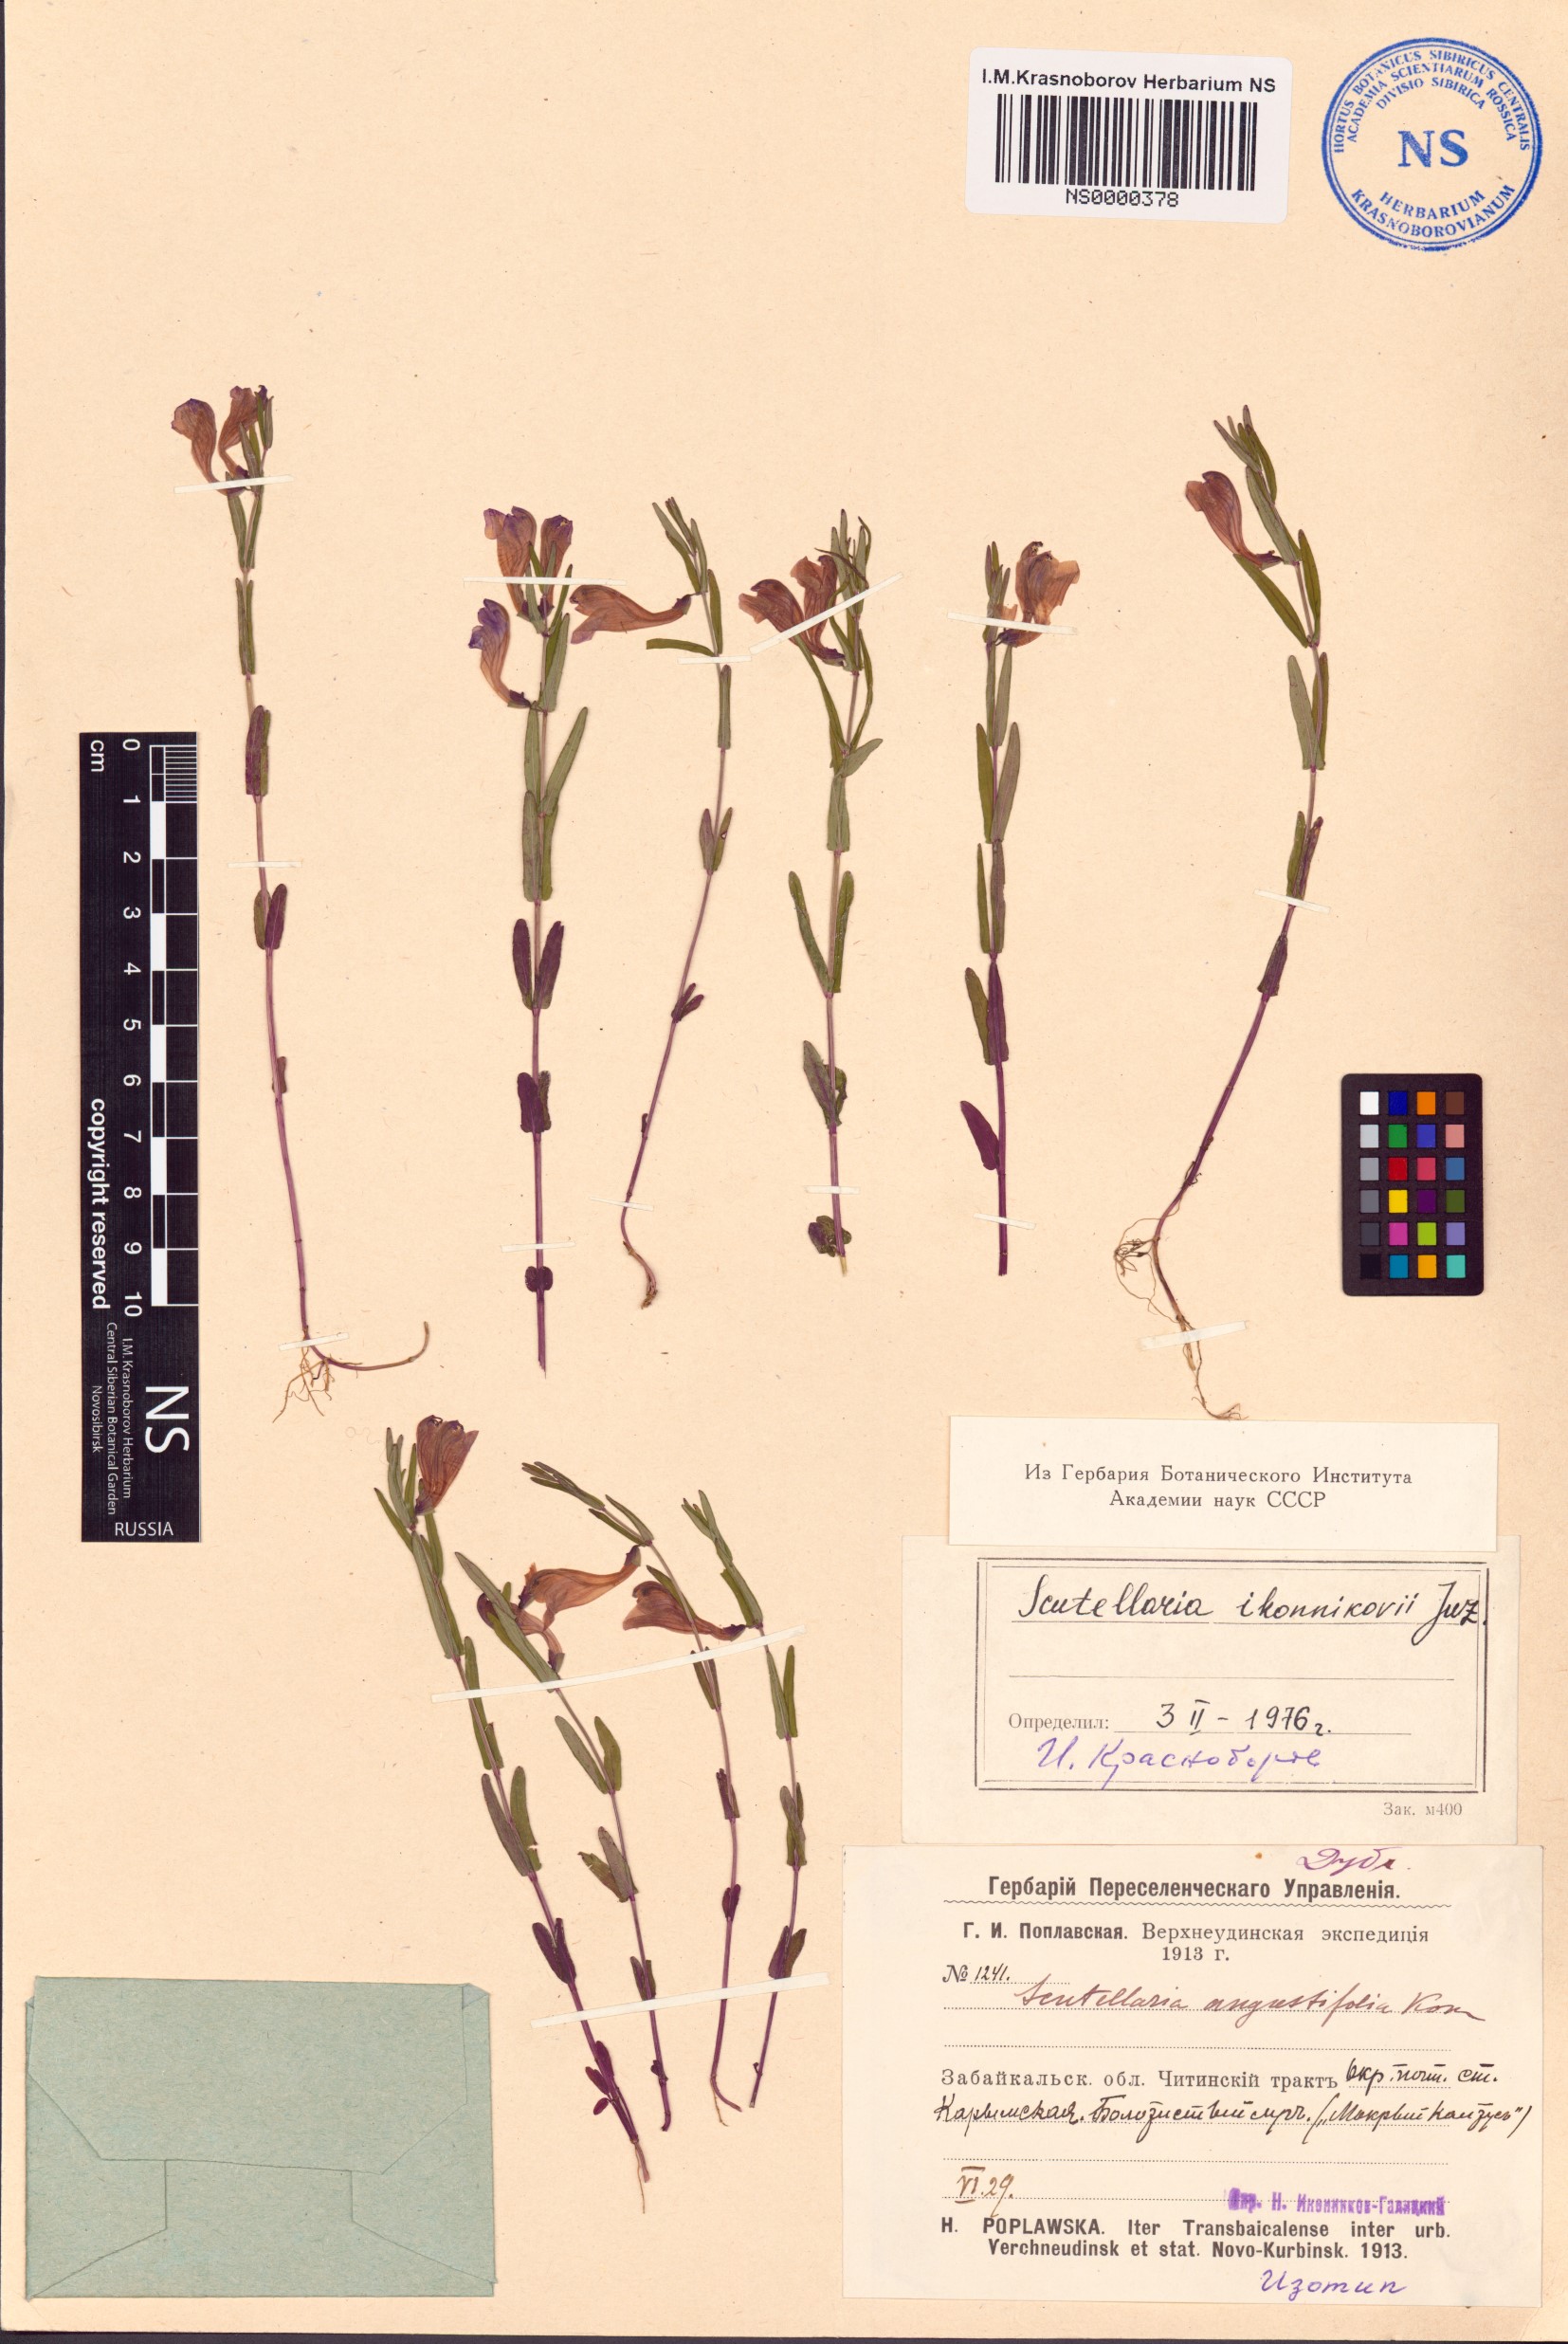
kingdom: Plantae
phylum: Tracheophyta
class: Magnoliopsida
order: Lamiales
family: Lamiaceae
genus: Scutellaria
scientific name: Scutellaria regeliana
